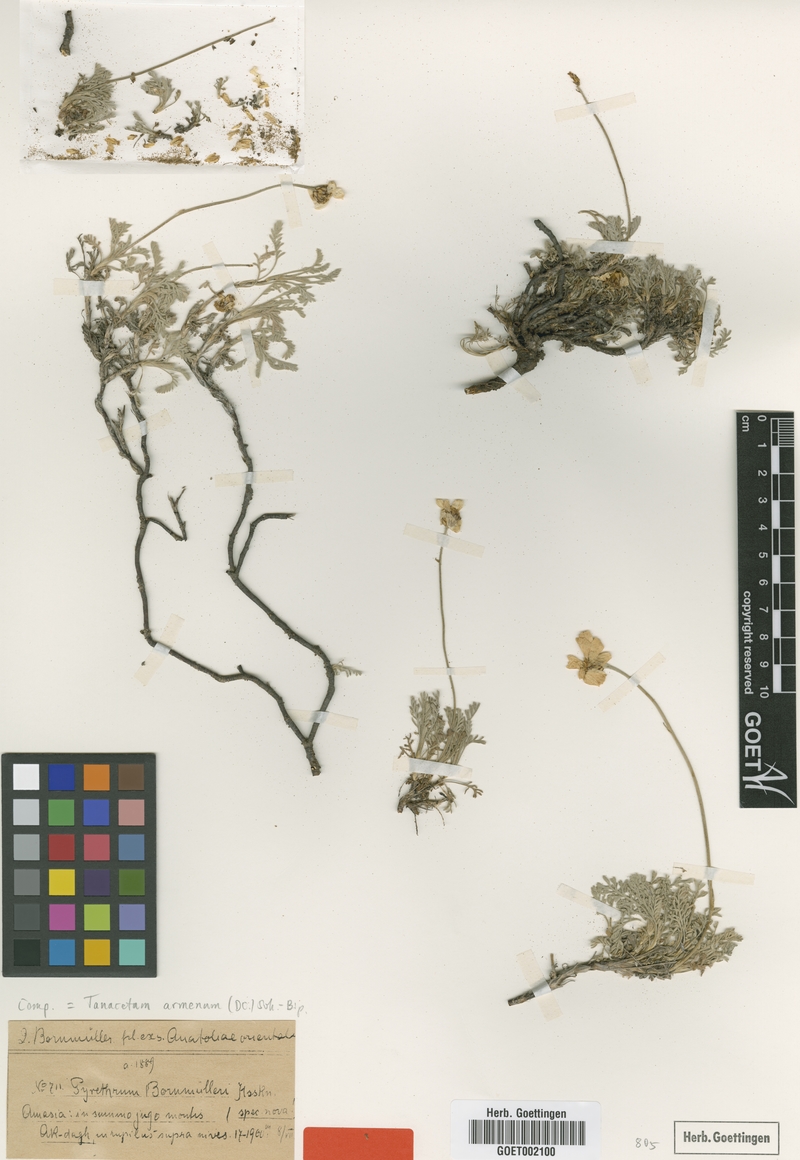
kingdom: Plantae
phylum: Tracheophyta
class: Magnoliopsida
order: Asterales
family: Asteraceae
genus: Tanacetum
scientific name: Tanacetum armenum
